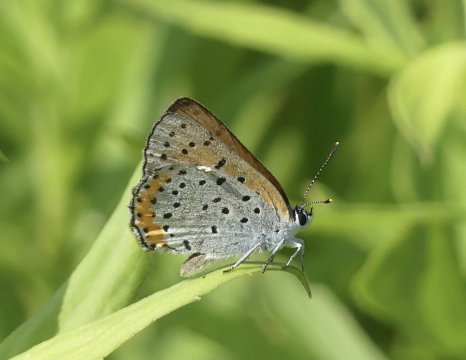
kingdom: Animalia
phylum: Arthropoda
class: Insecta
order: Lepidoptera
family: Sesiidae
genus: Sesia
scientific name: Sesia Lycaena hyllus
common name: Bronze Copper
